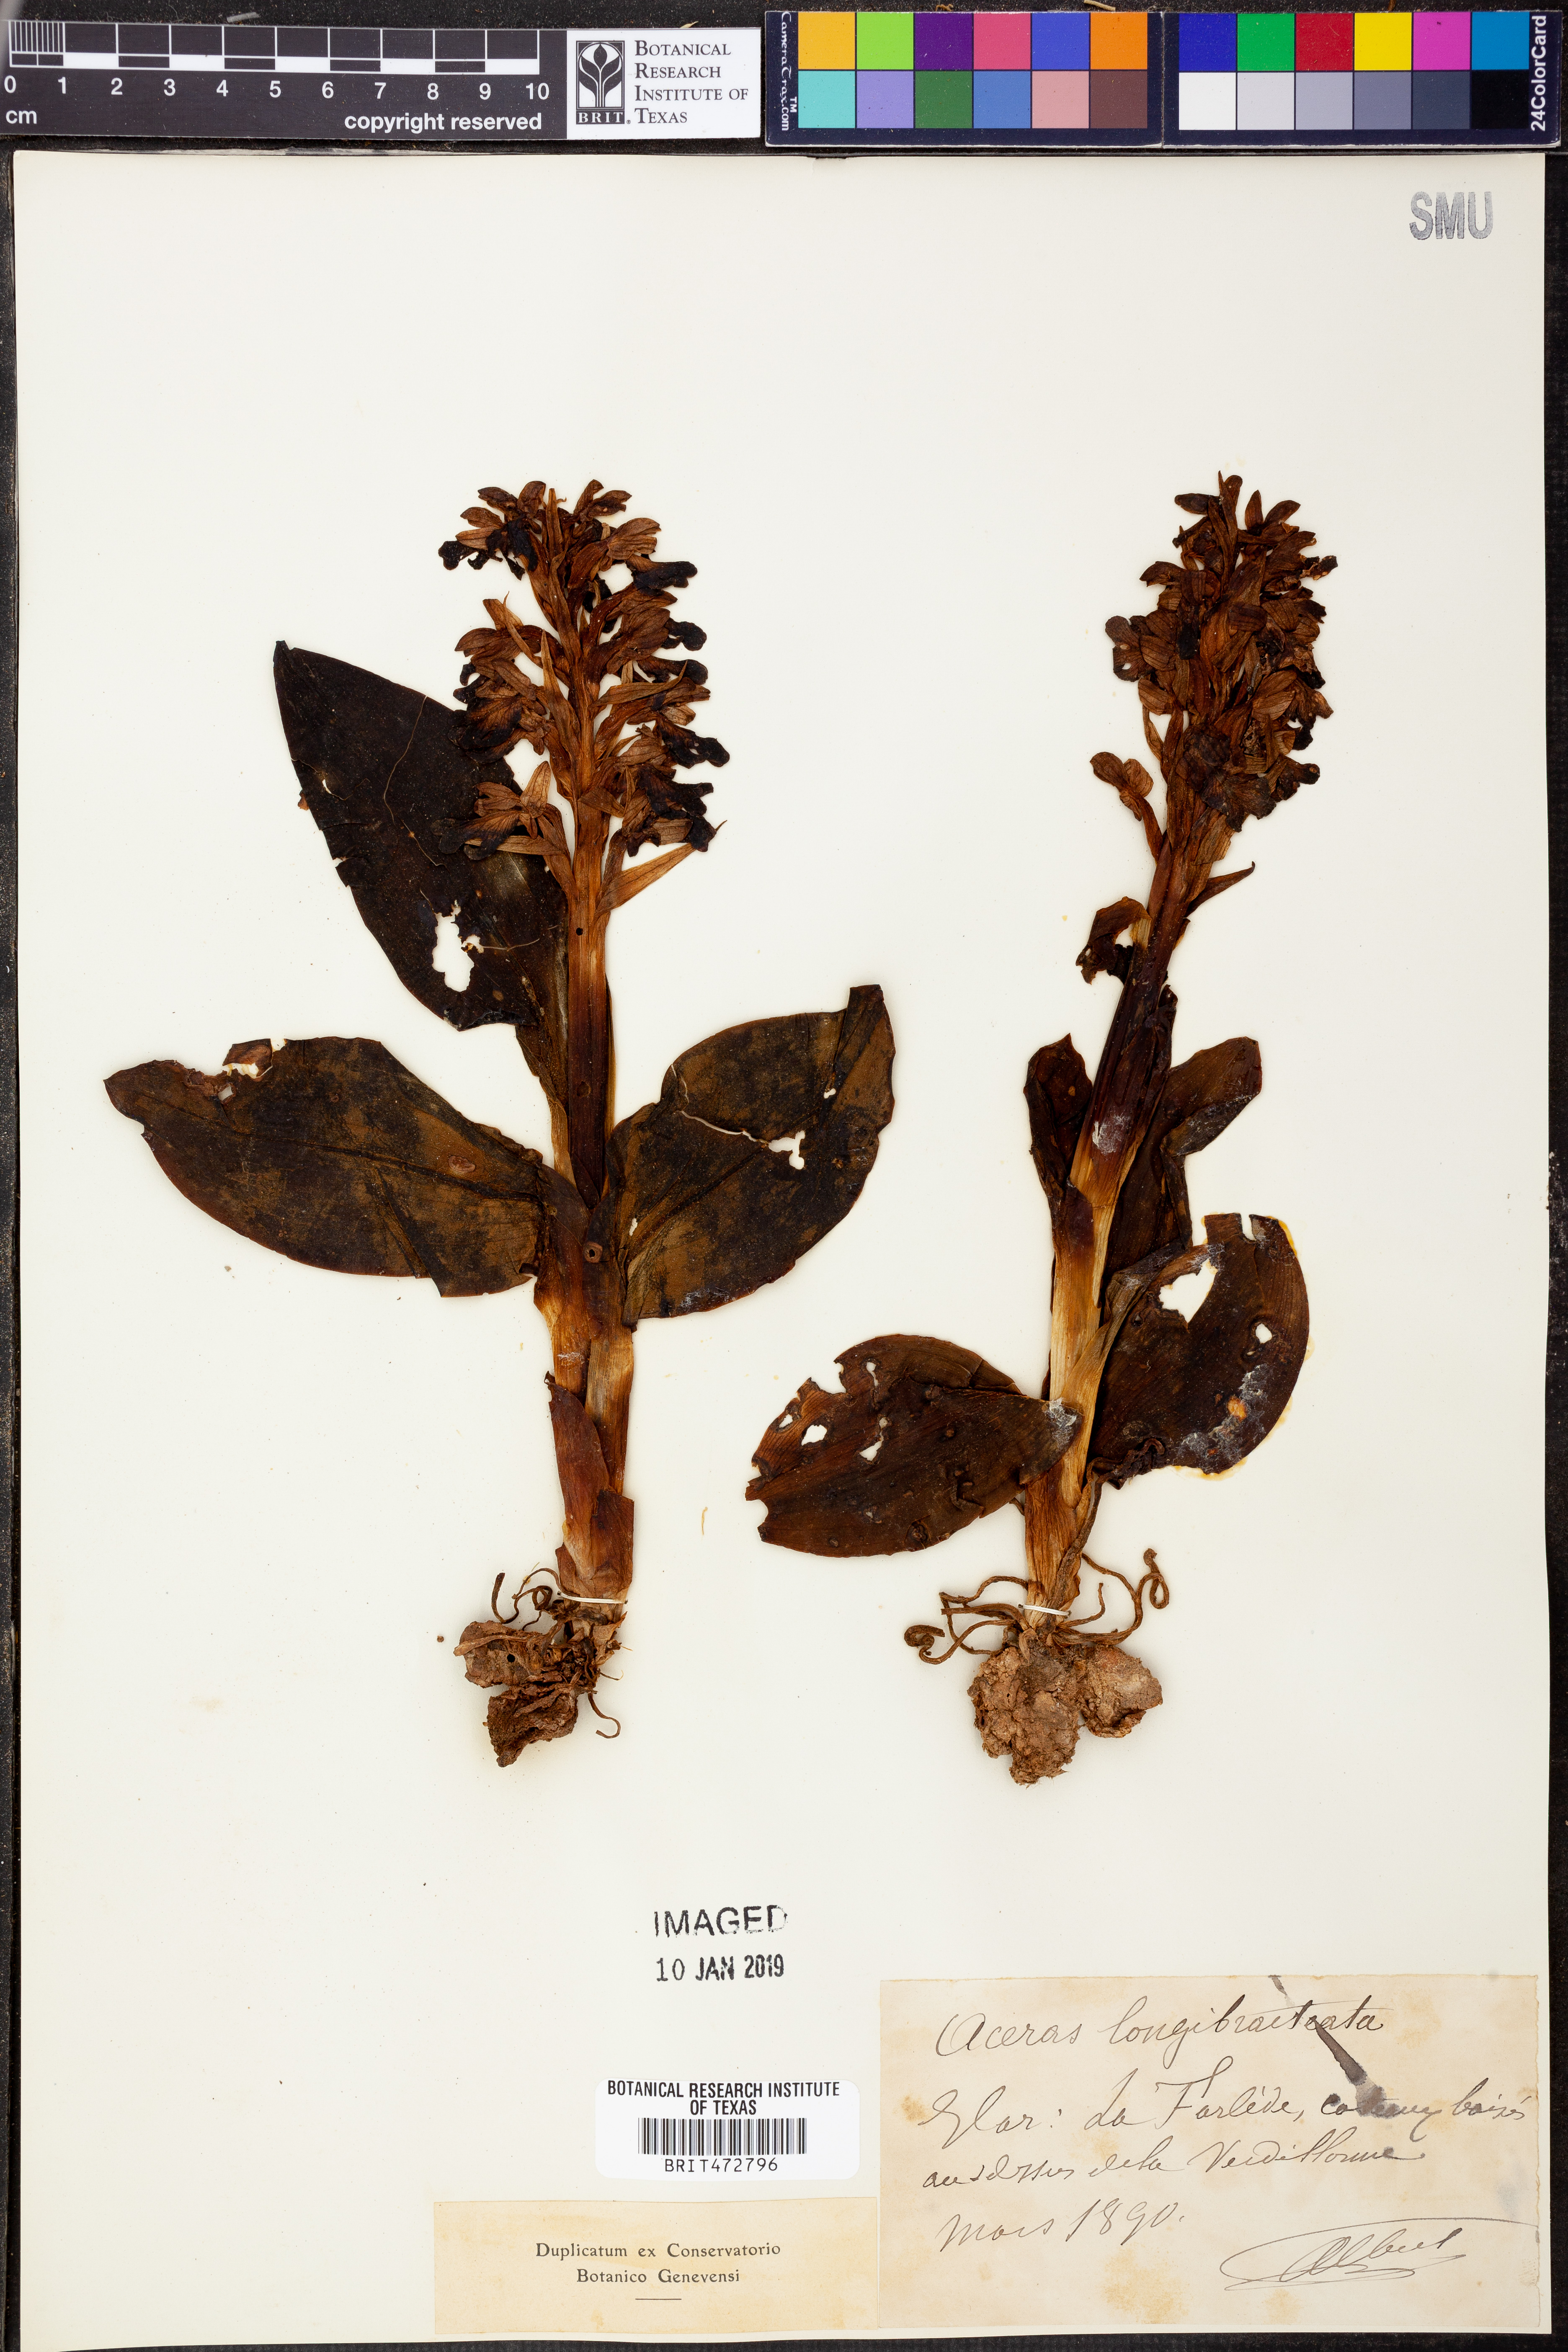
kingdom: Plantae
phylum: Tracheophyta
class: Liliopsida
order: Asparagales
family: Orchidaceae
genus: Himantoglossum
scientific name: Himantoglossum robertianum
